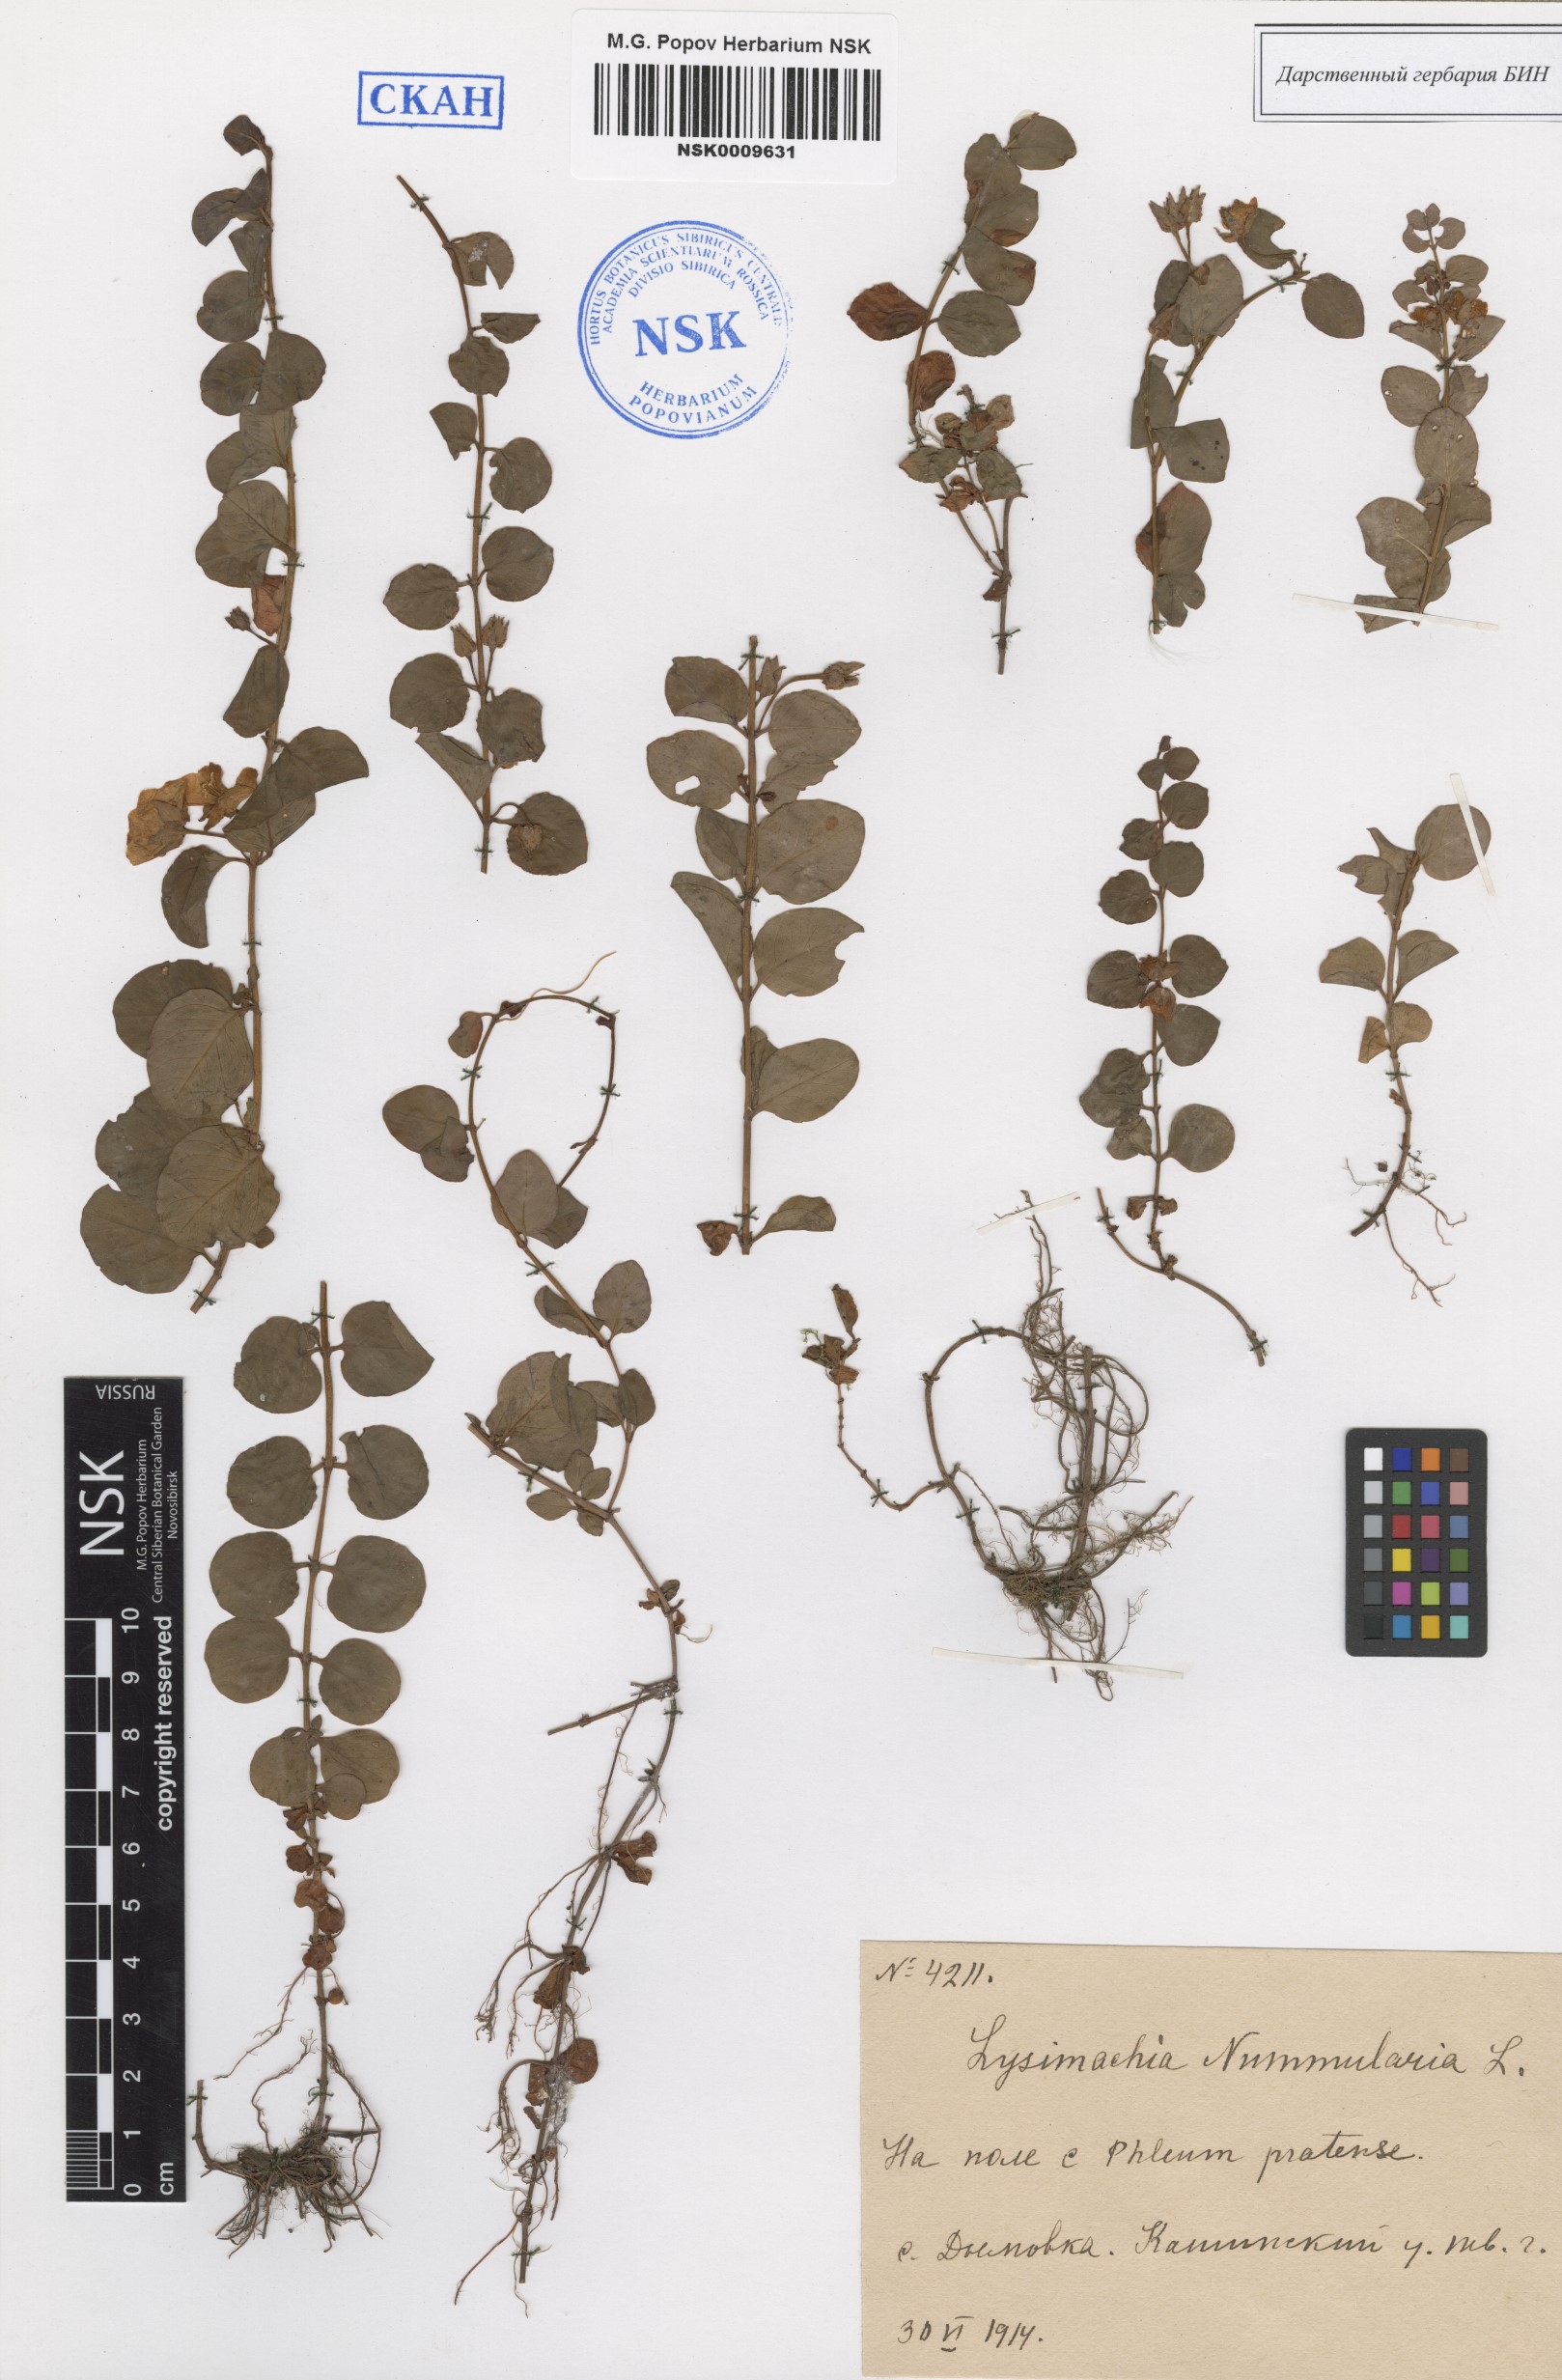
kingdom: Plantae
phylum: Tracheophyta
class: Magnoliopsida
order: Ericales
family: Primulaceae
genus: Lysimachia
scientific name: Lysimachia nummularia
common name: Moneywort
